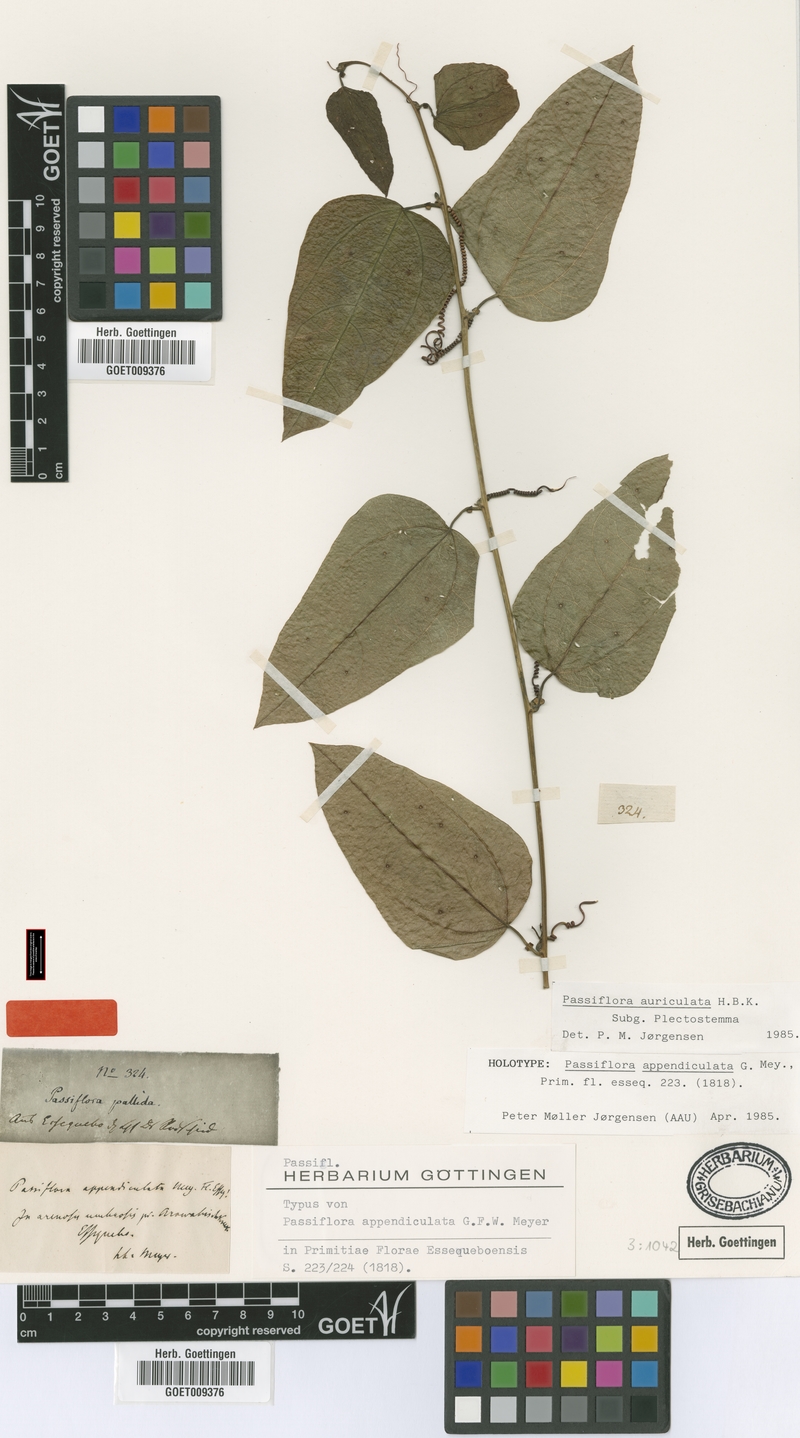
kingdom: Plantae
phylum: Tracheophyta
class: Magnoliopsida
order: Malpighiales
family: Passifloraceae
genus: Passiflora
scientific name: Passiflora auriculata
